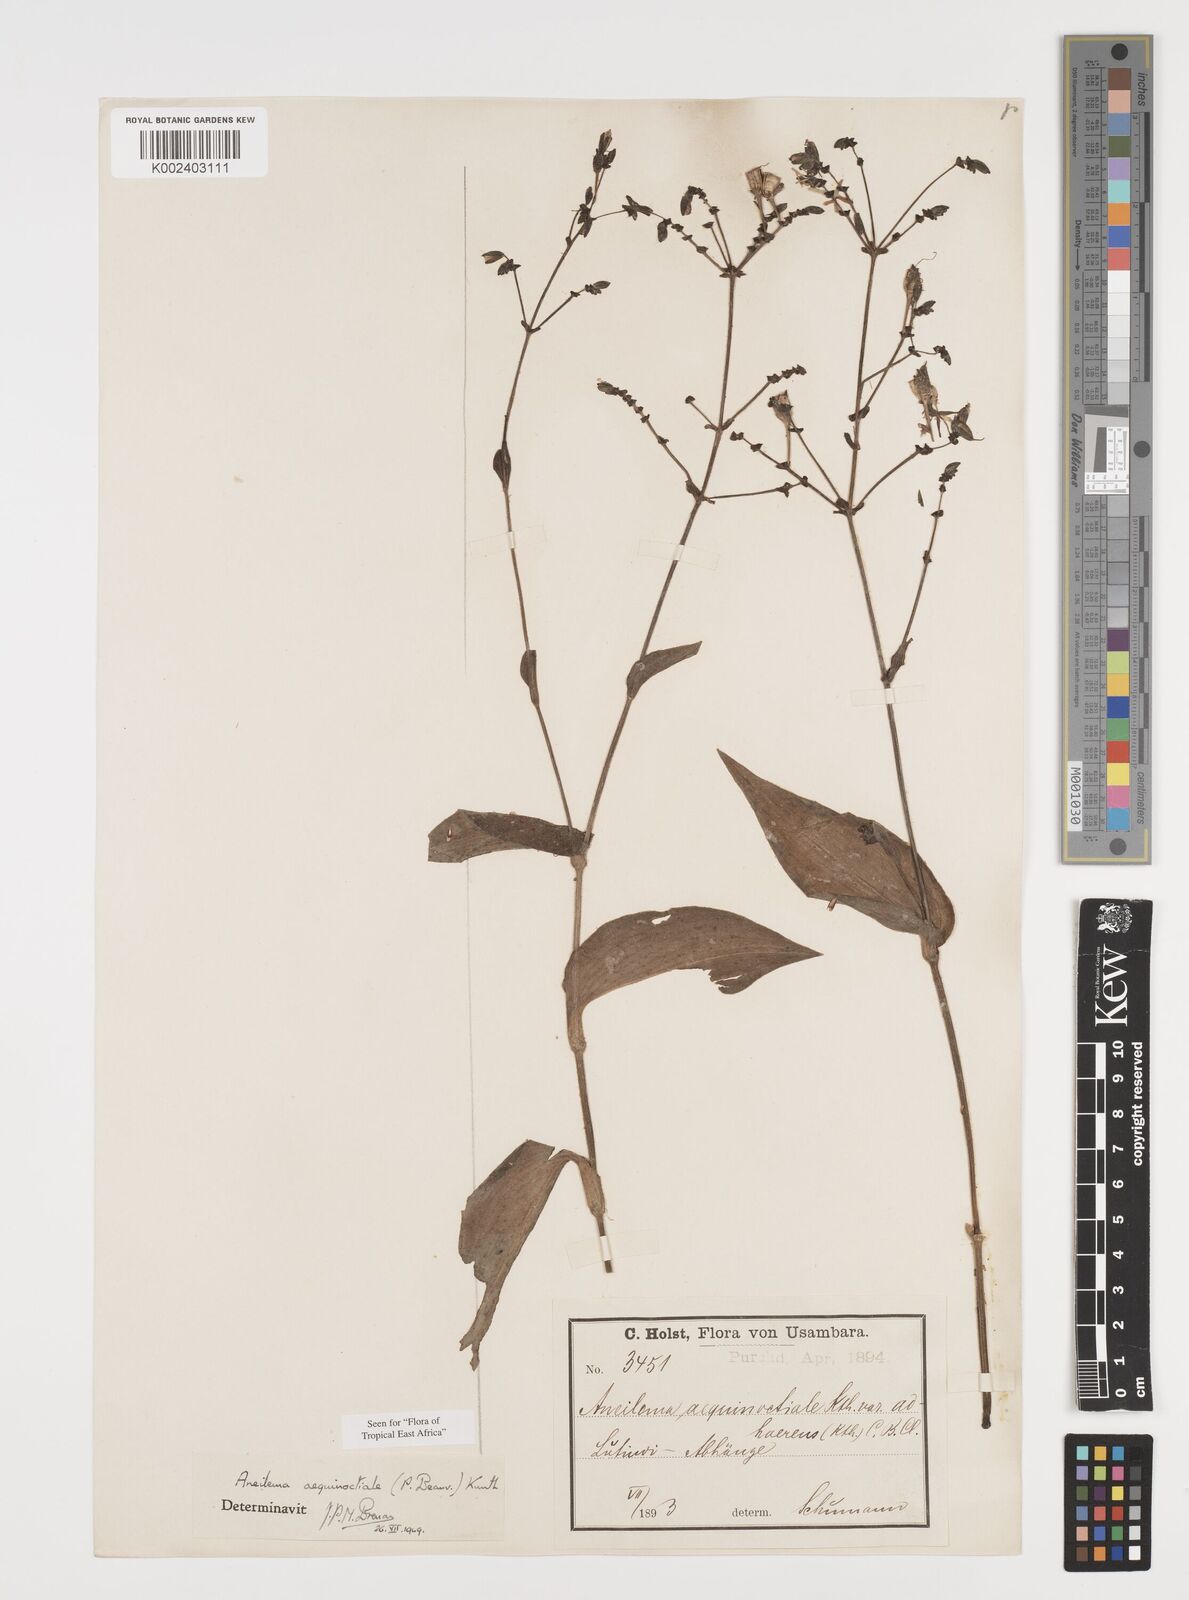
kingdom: Plantae
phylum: Tracheophyta
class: Liliopsida
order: Commelinales
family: Commelinaceae
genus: Aneilema
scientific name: Aneilema aequinoctiale
